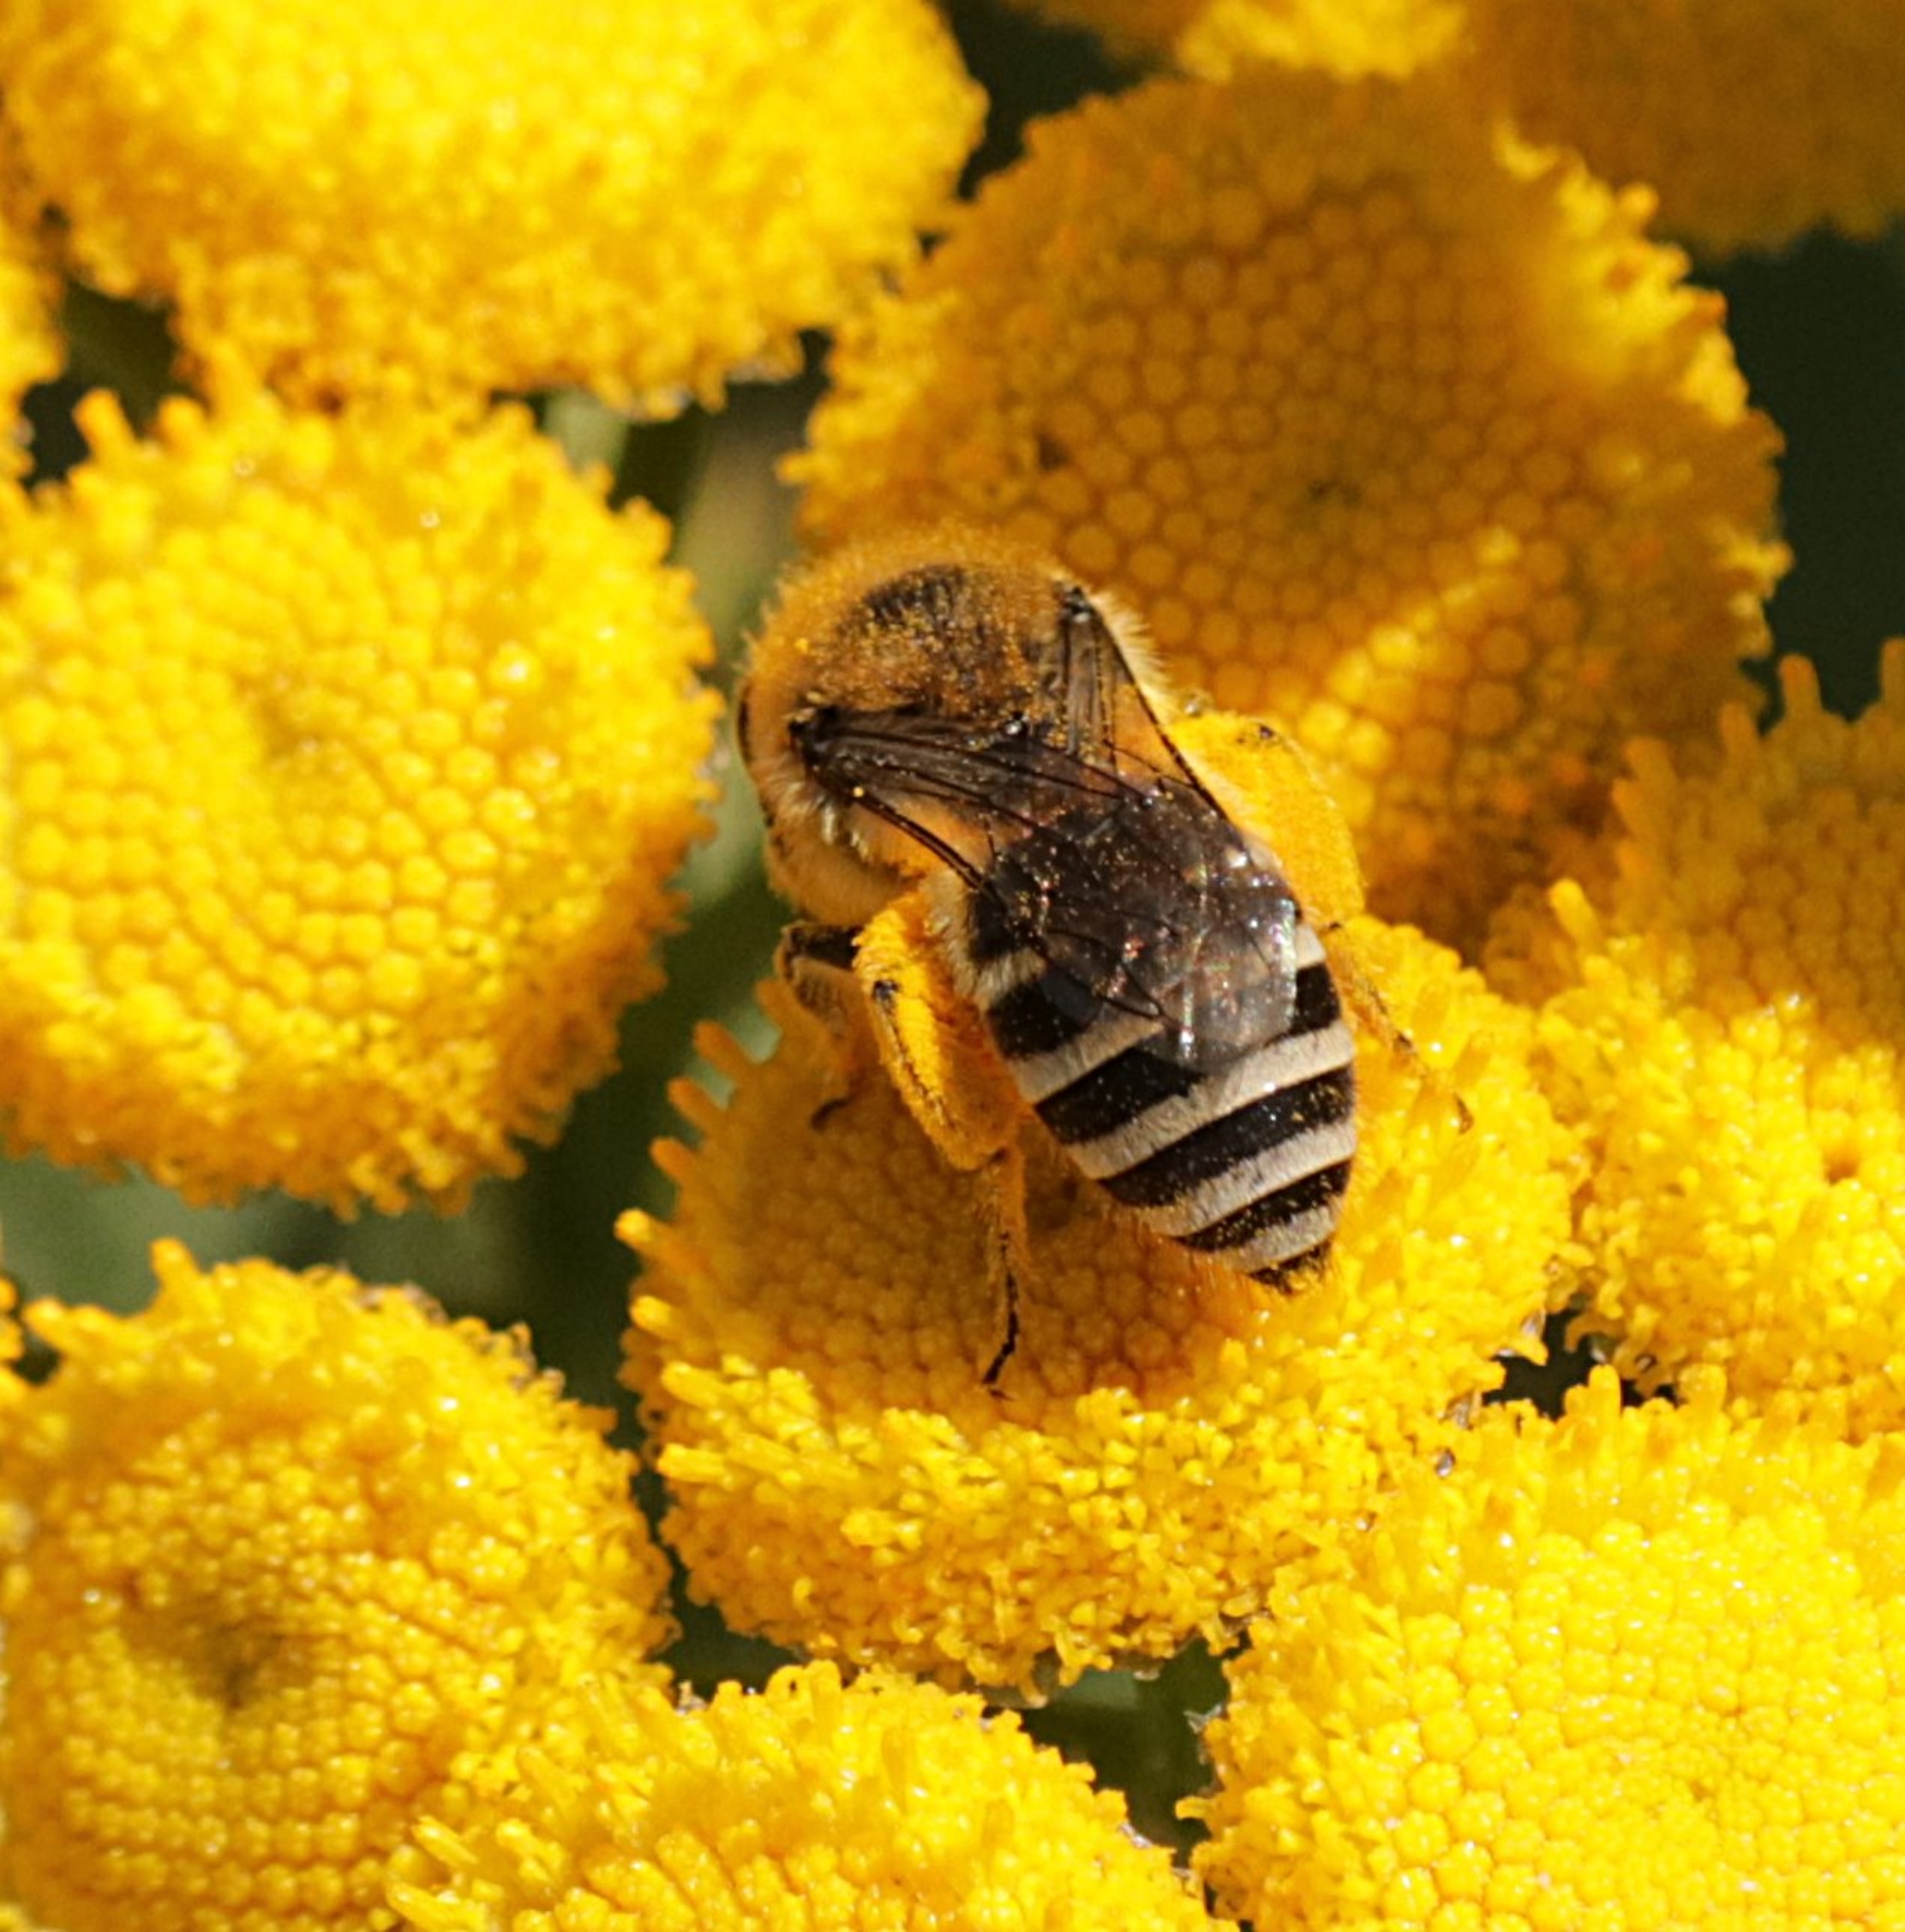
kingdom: Animalia
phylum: Arthropoda
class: Insecta
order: Hymenoptera
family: Colletidae
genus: Colletes
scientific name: Colletes
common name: Silkebier
